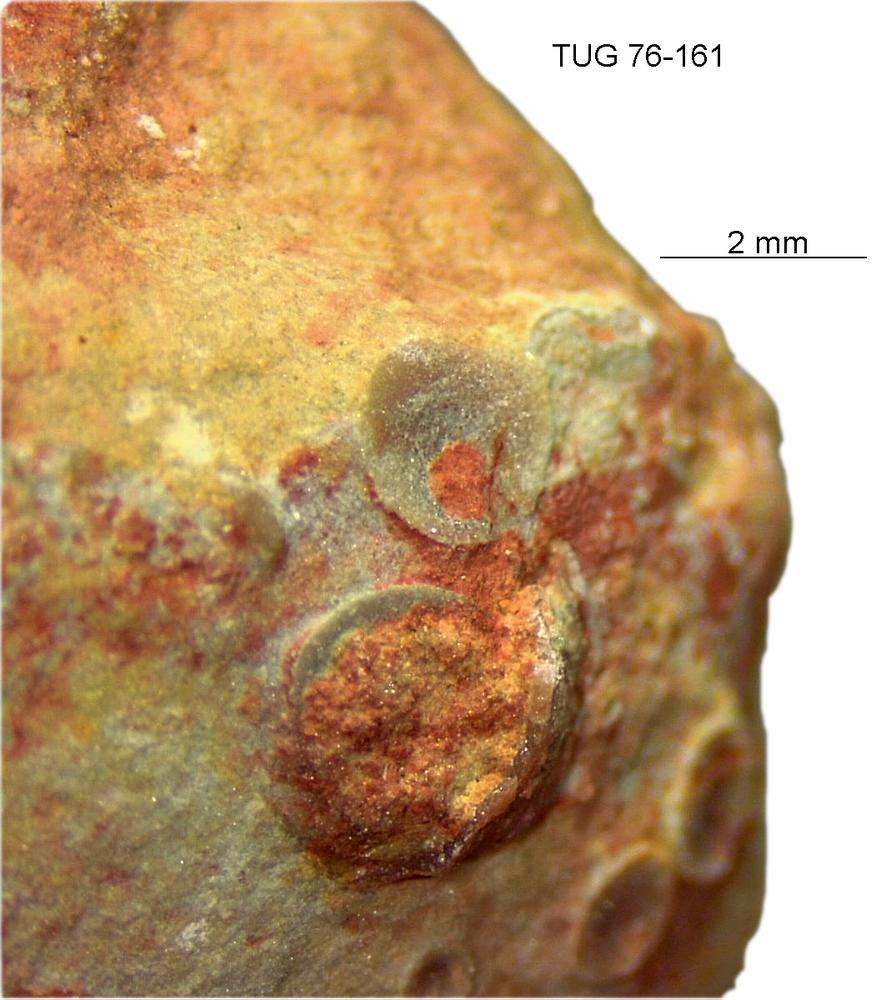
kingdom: Animalia
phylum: Brachiopoda
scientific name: Brachiopoda
